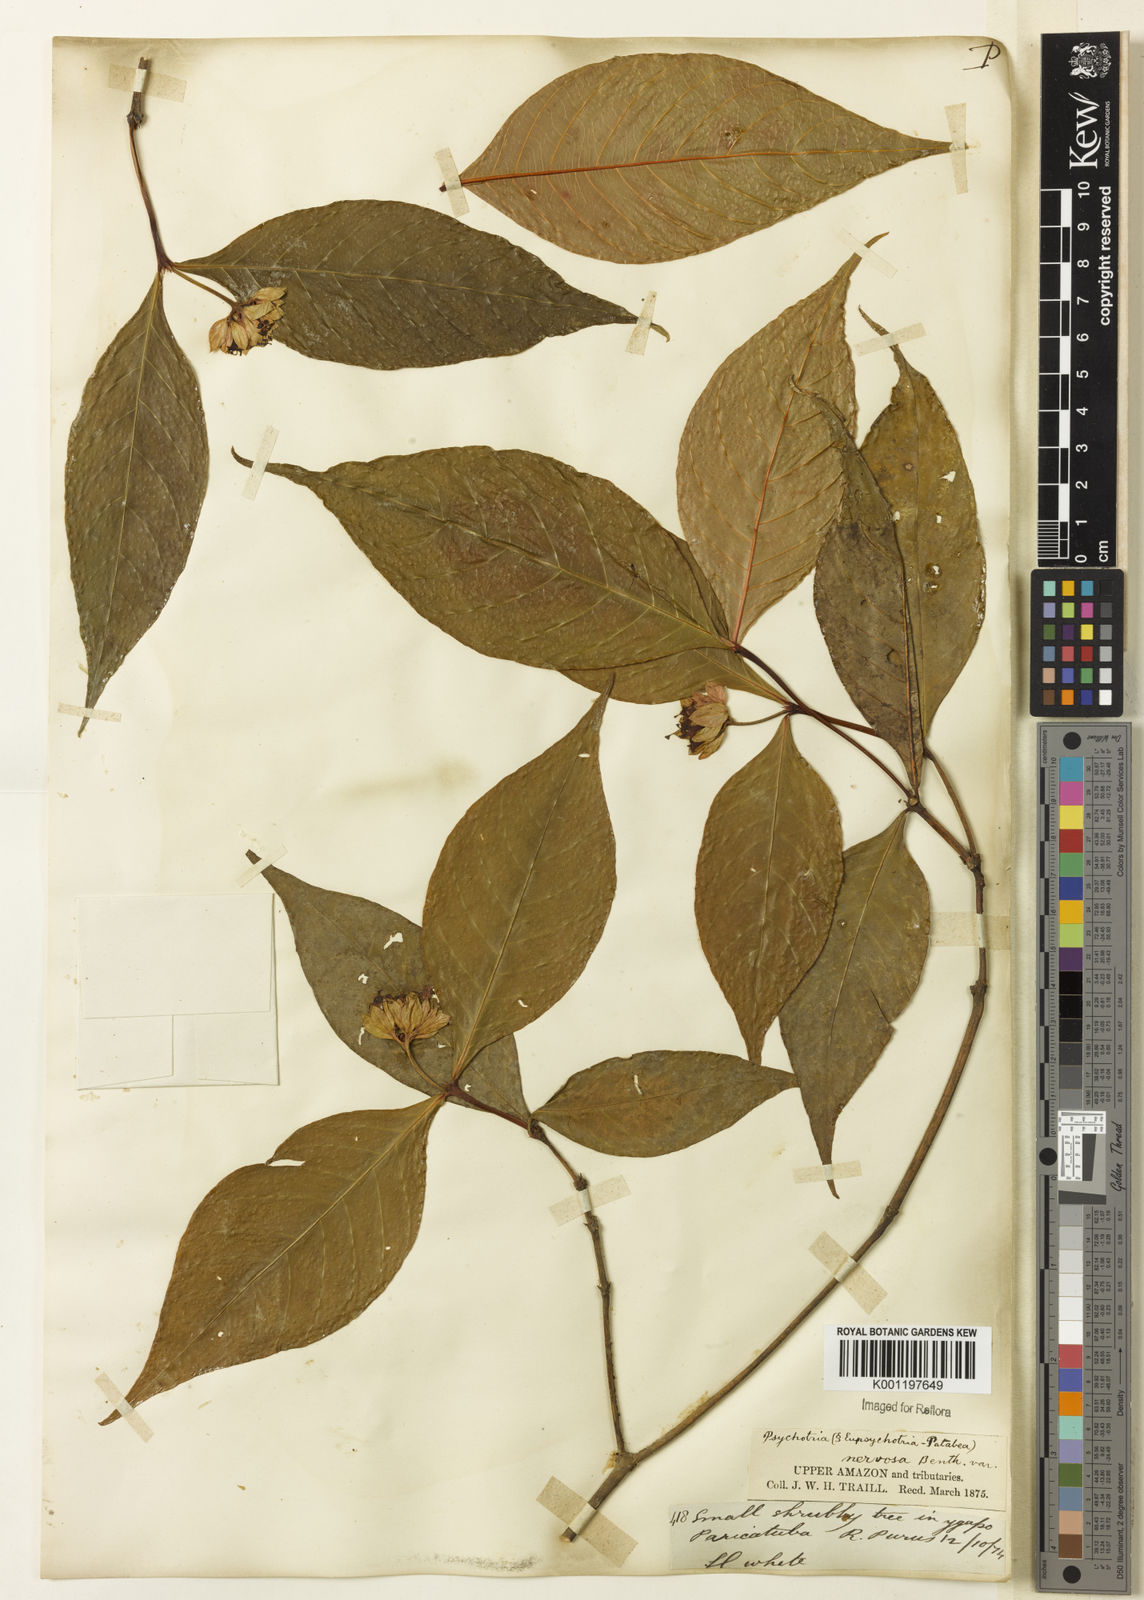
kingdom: Plantae
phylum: Tracheophyta
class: Magnoliopsida
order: Gentianales
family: Rubiaceae
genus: Palicourea
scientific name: Palicourea justiciifolia
